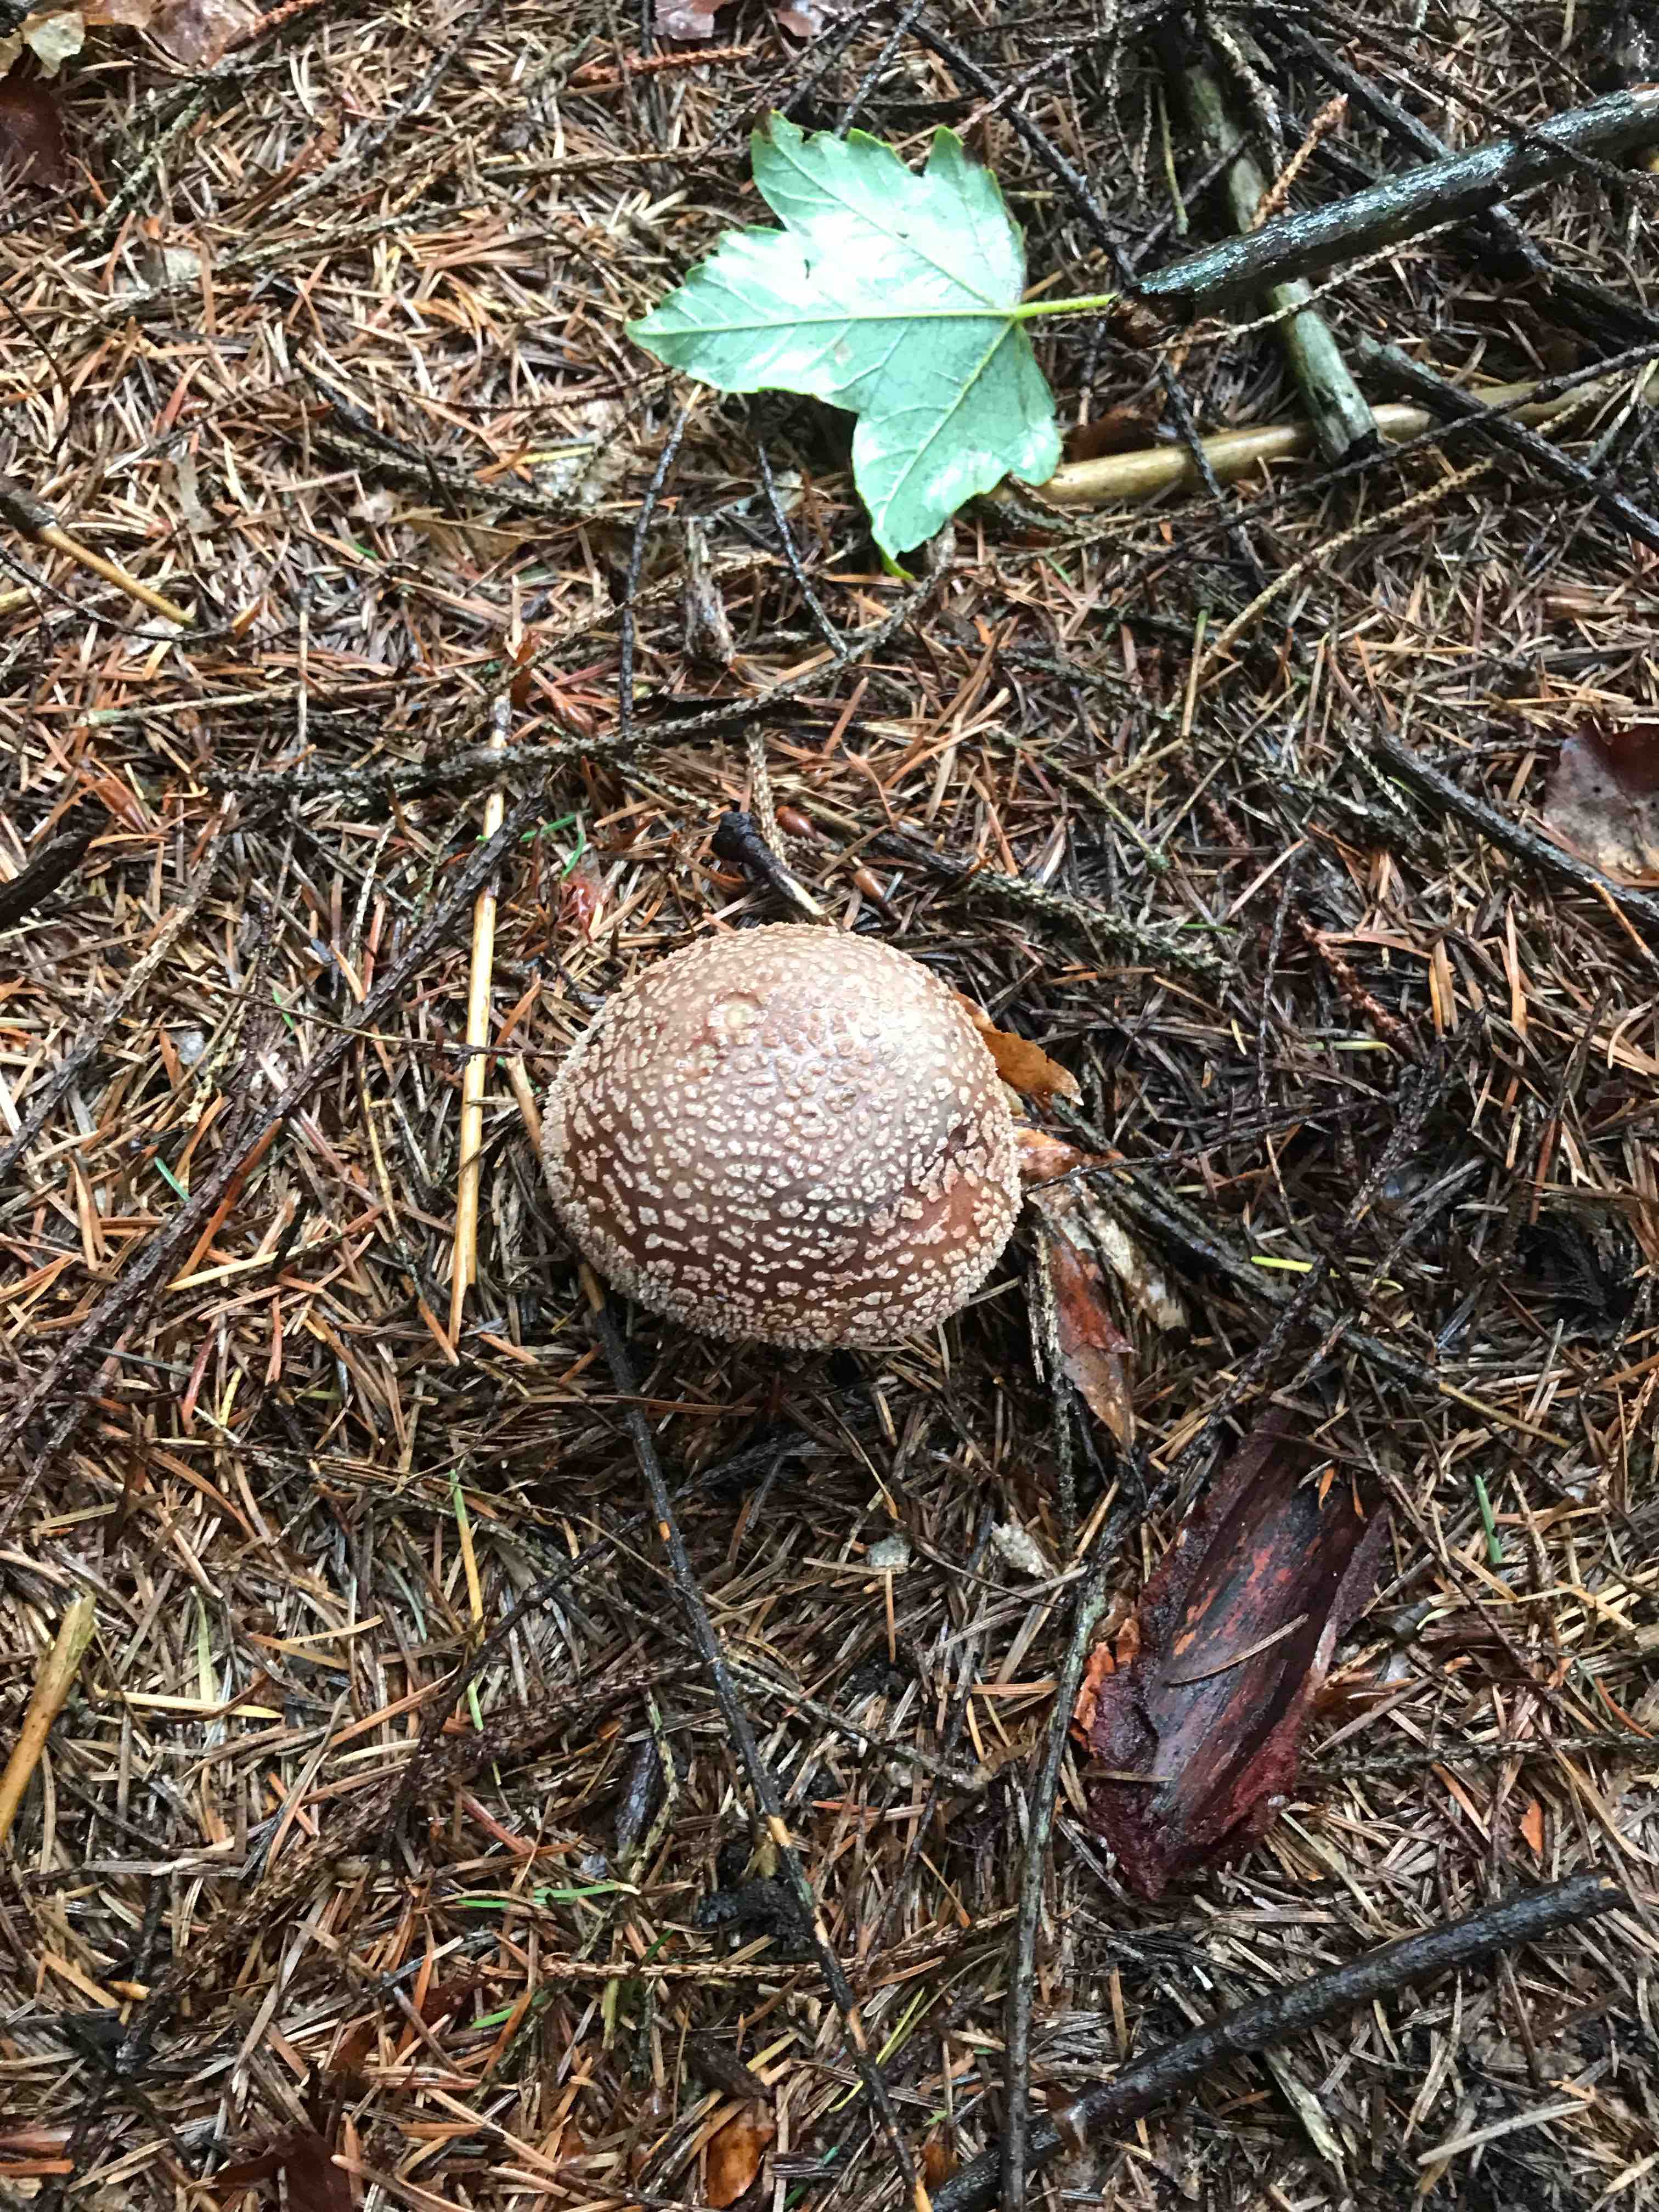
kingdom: Fungi
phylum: Basidiomycota
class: Agaricomycetes
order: Agaricales
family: Amanitaceae
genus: Amanita
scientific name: Amanita rubescens
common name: rødmende fluesvamp
